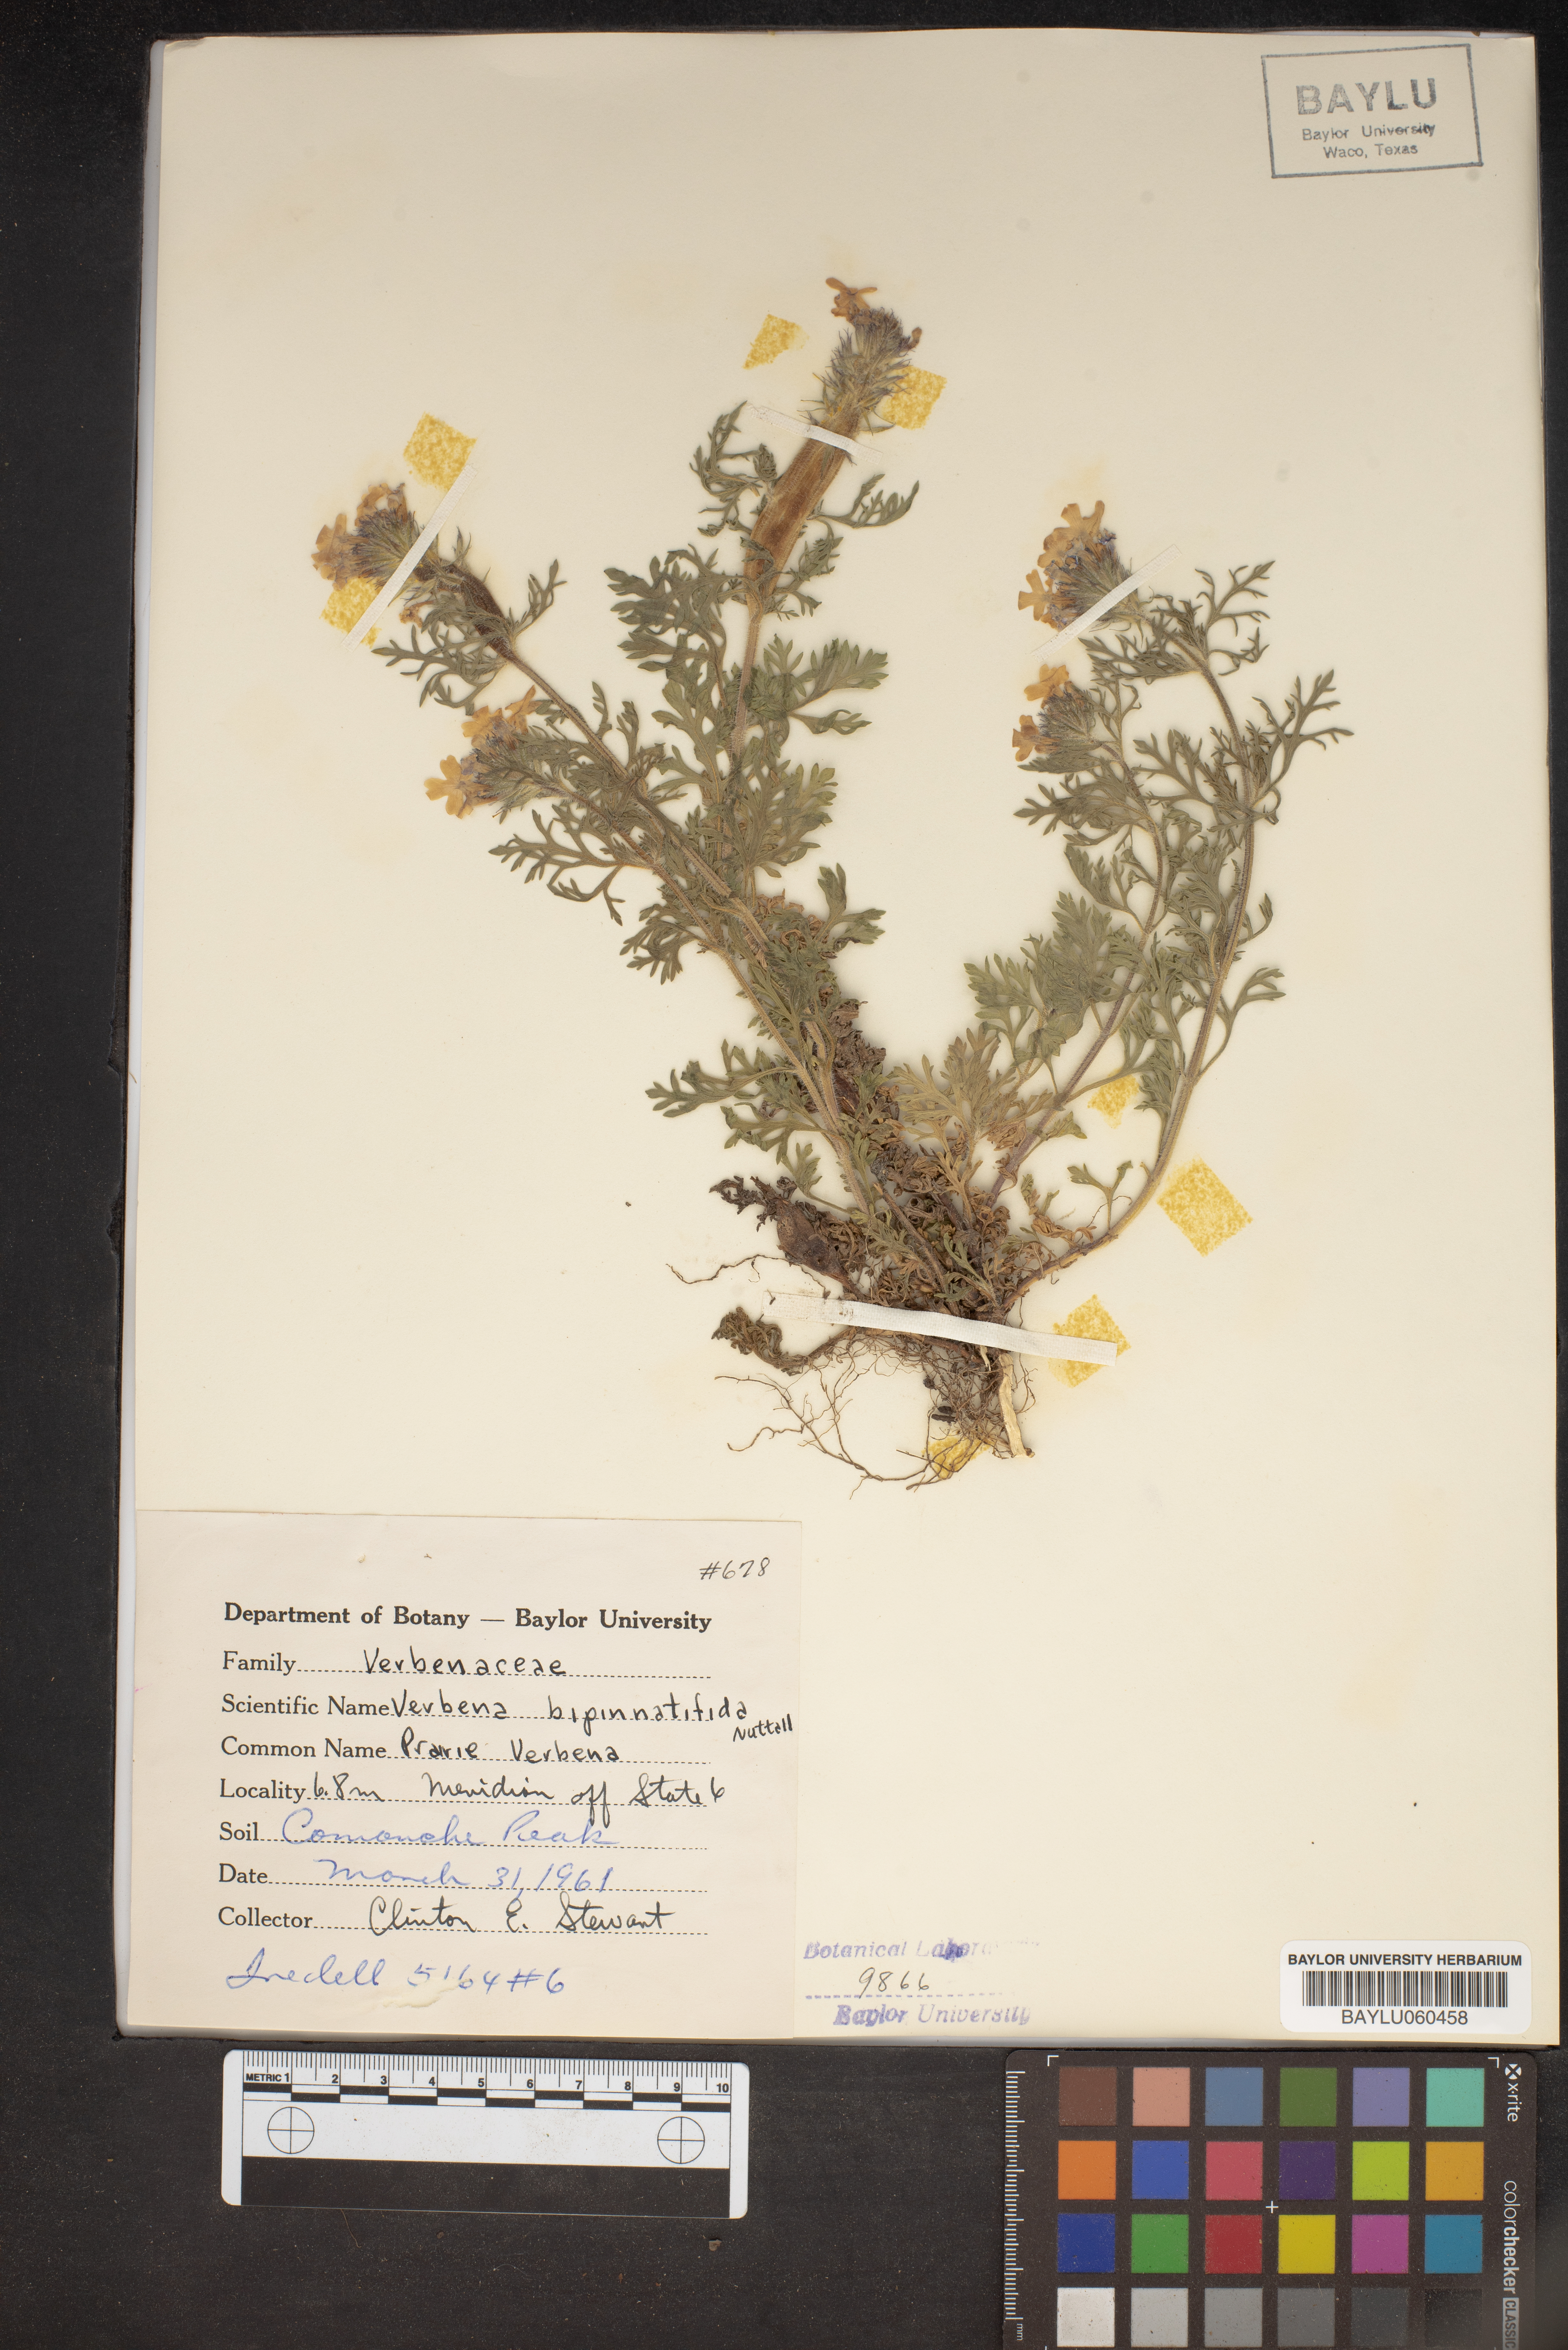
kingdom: Plantae
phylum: Tracheophyta
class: Magnoliopsida
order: Lamiales
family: Verbenaceae
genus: Verbena
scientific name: Verbena bipinnatifida
